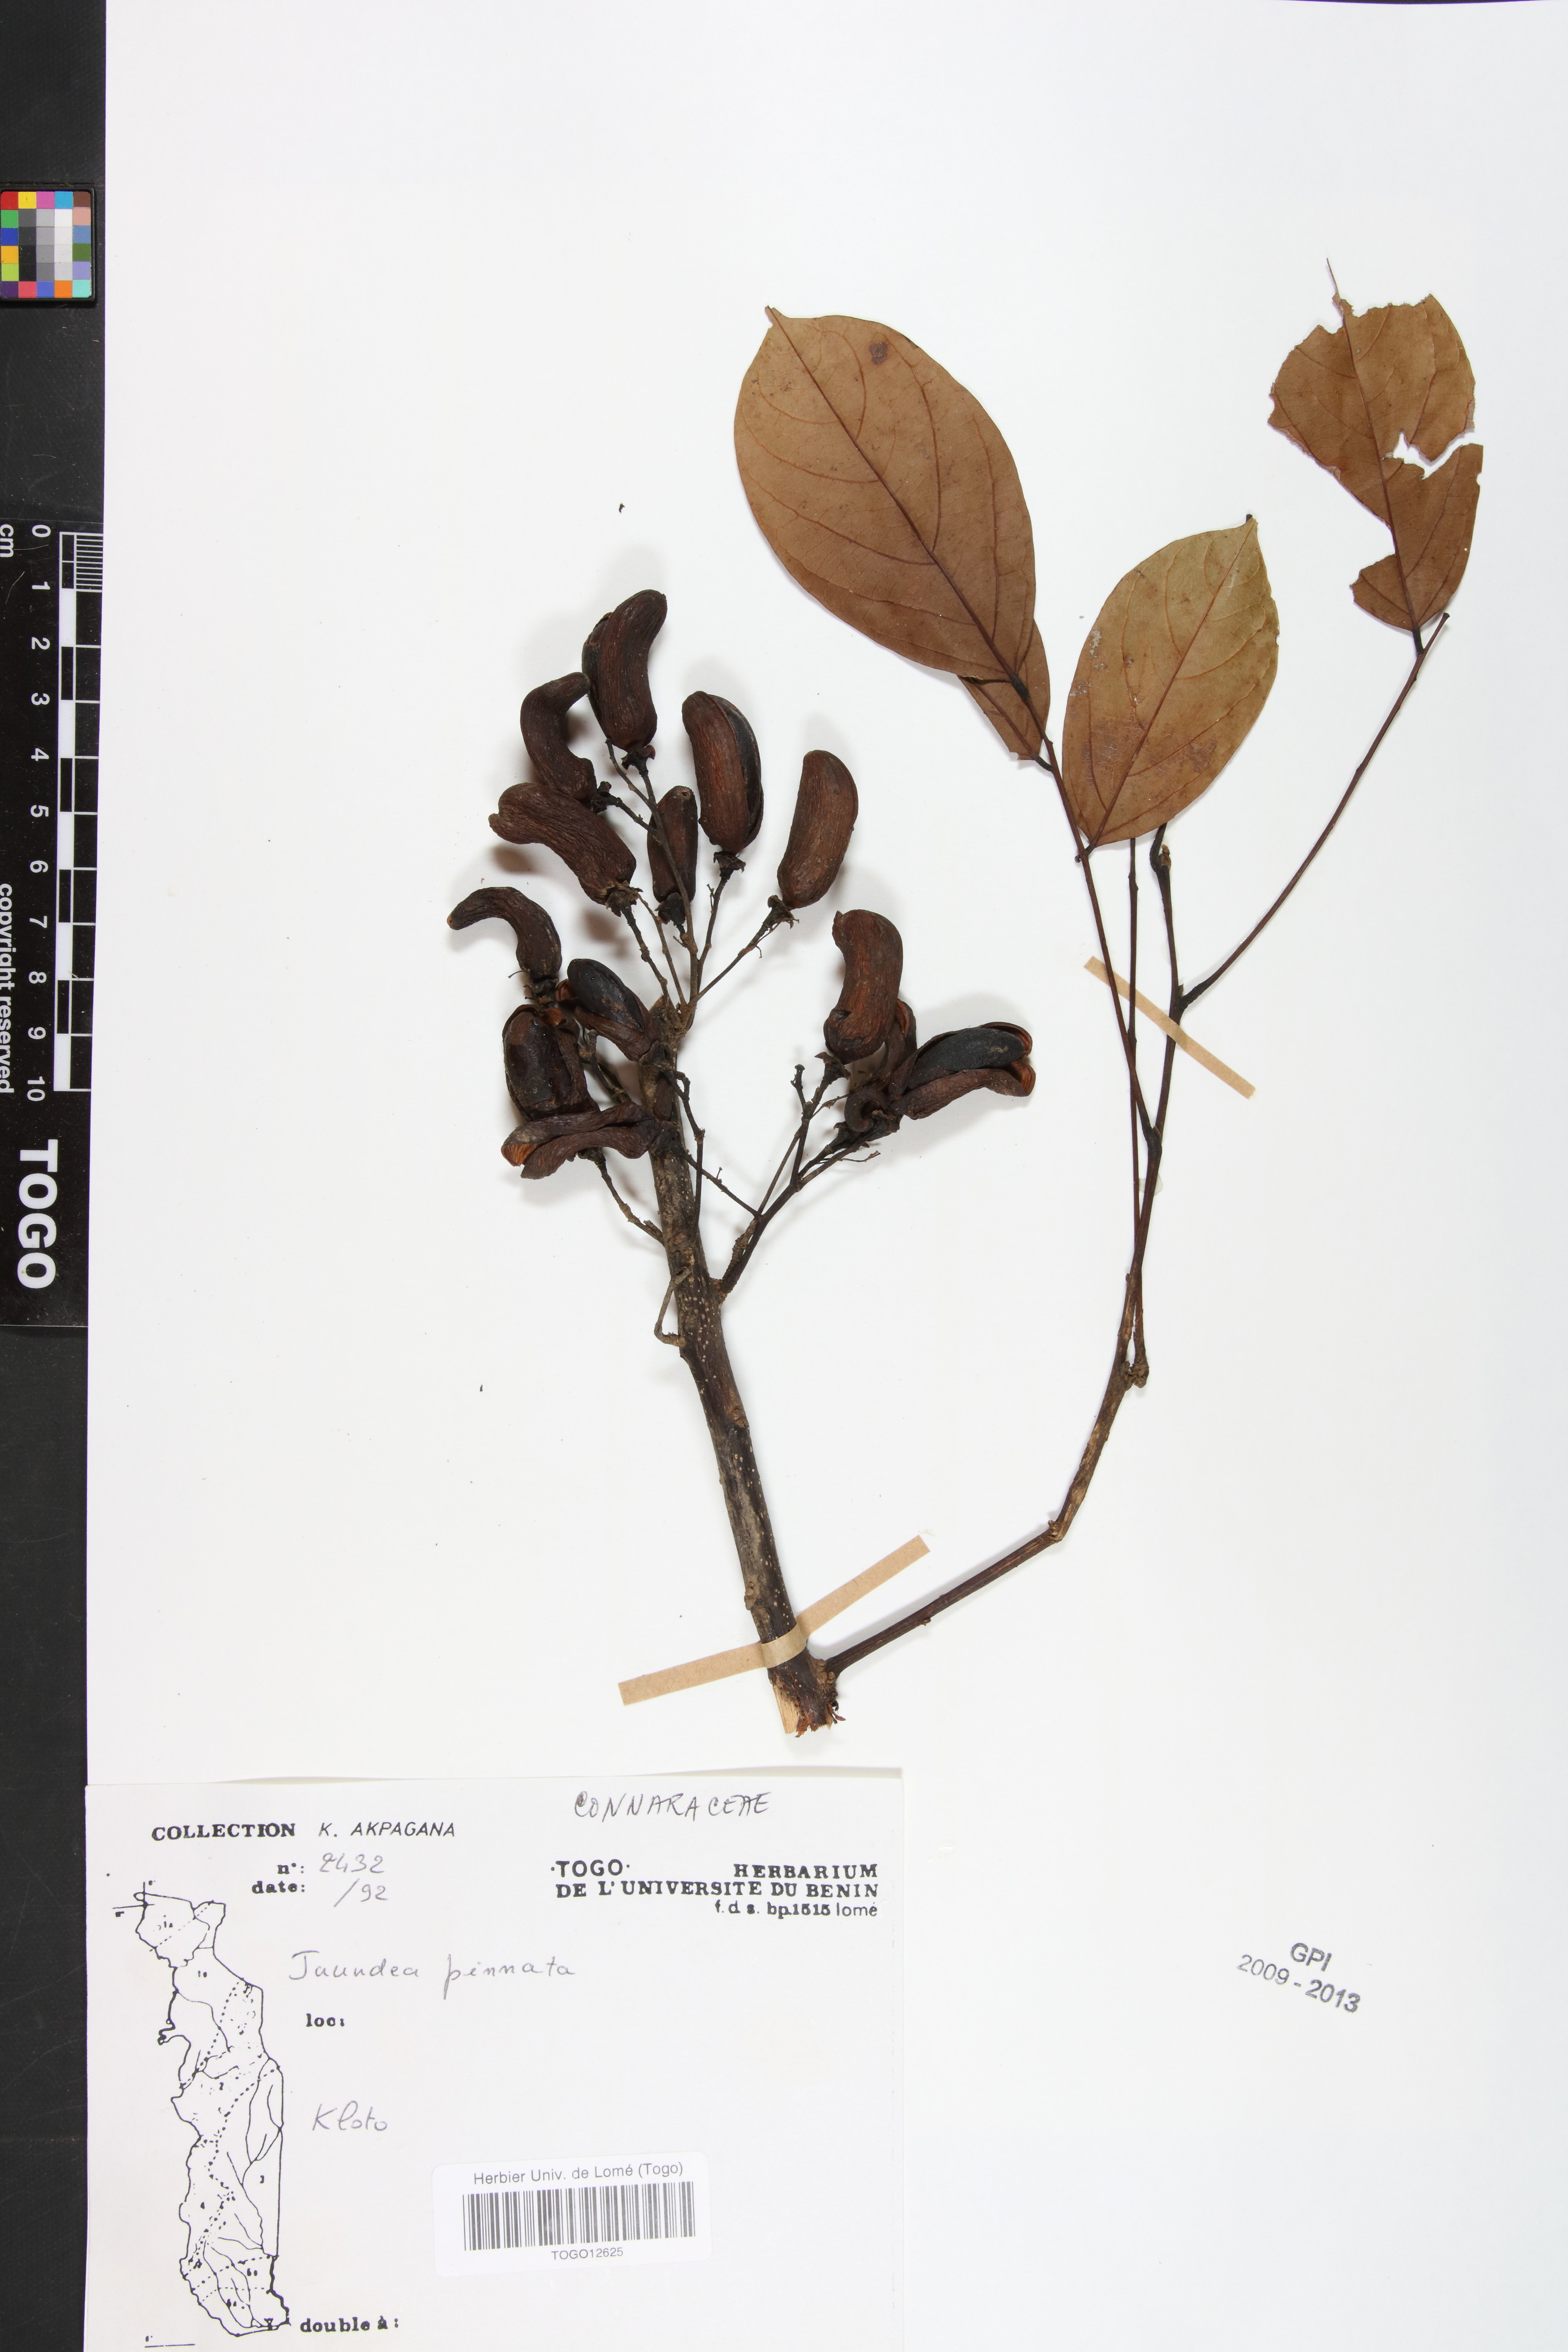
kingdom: Plantae
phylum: Tracheophyta
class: Magnoliopsida
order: Oxalidales
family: Connaraceae
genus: Rourea
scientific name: Rourea thomsonii
